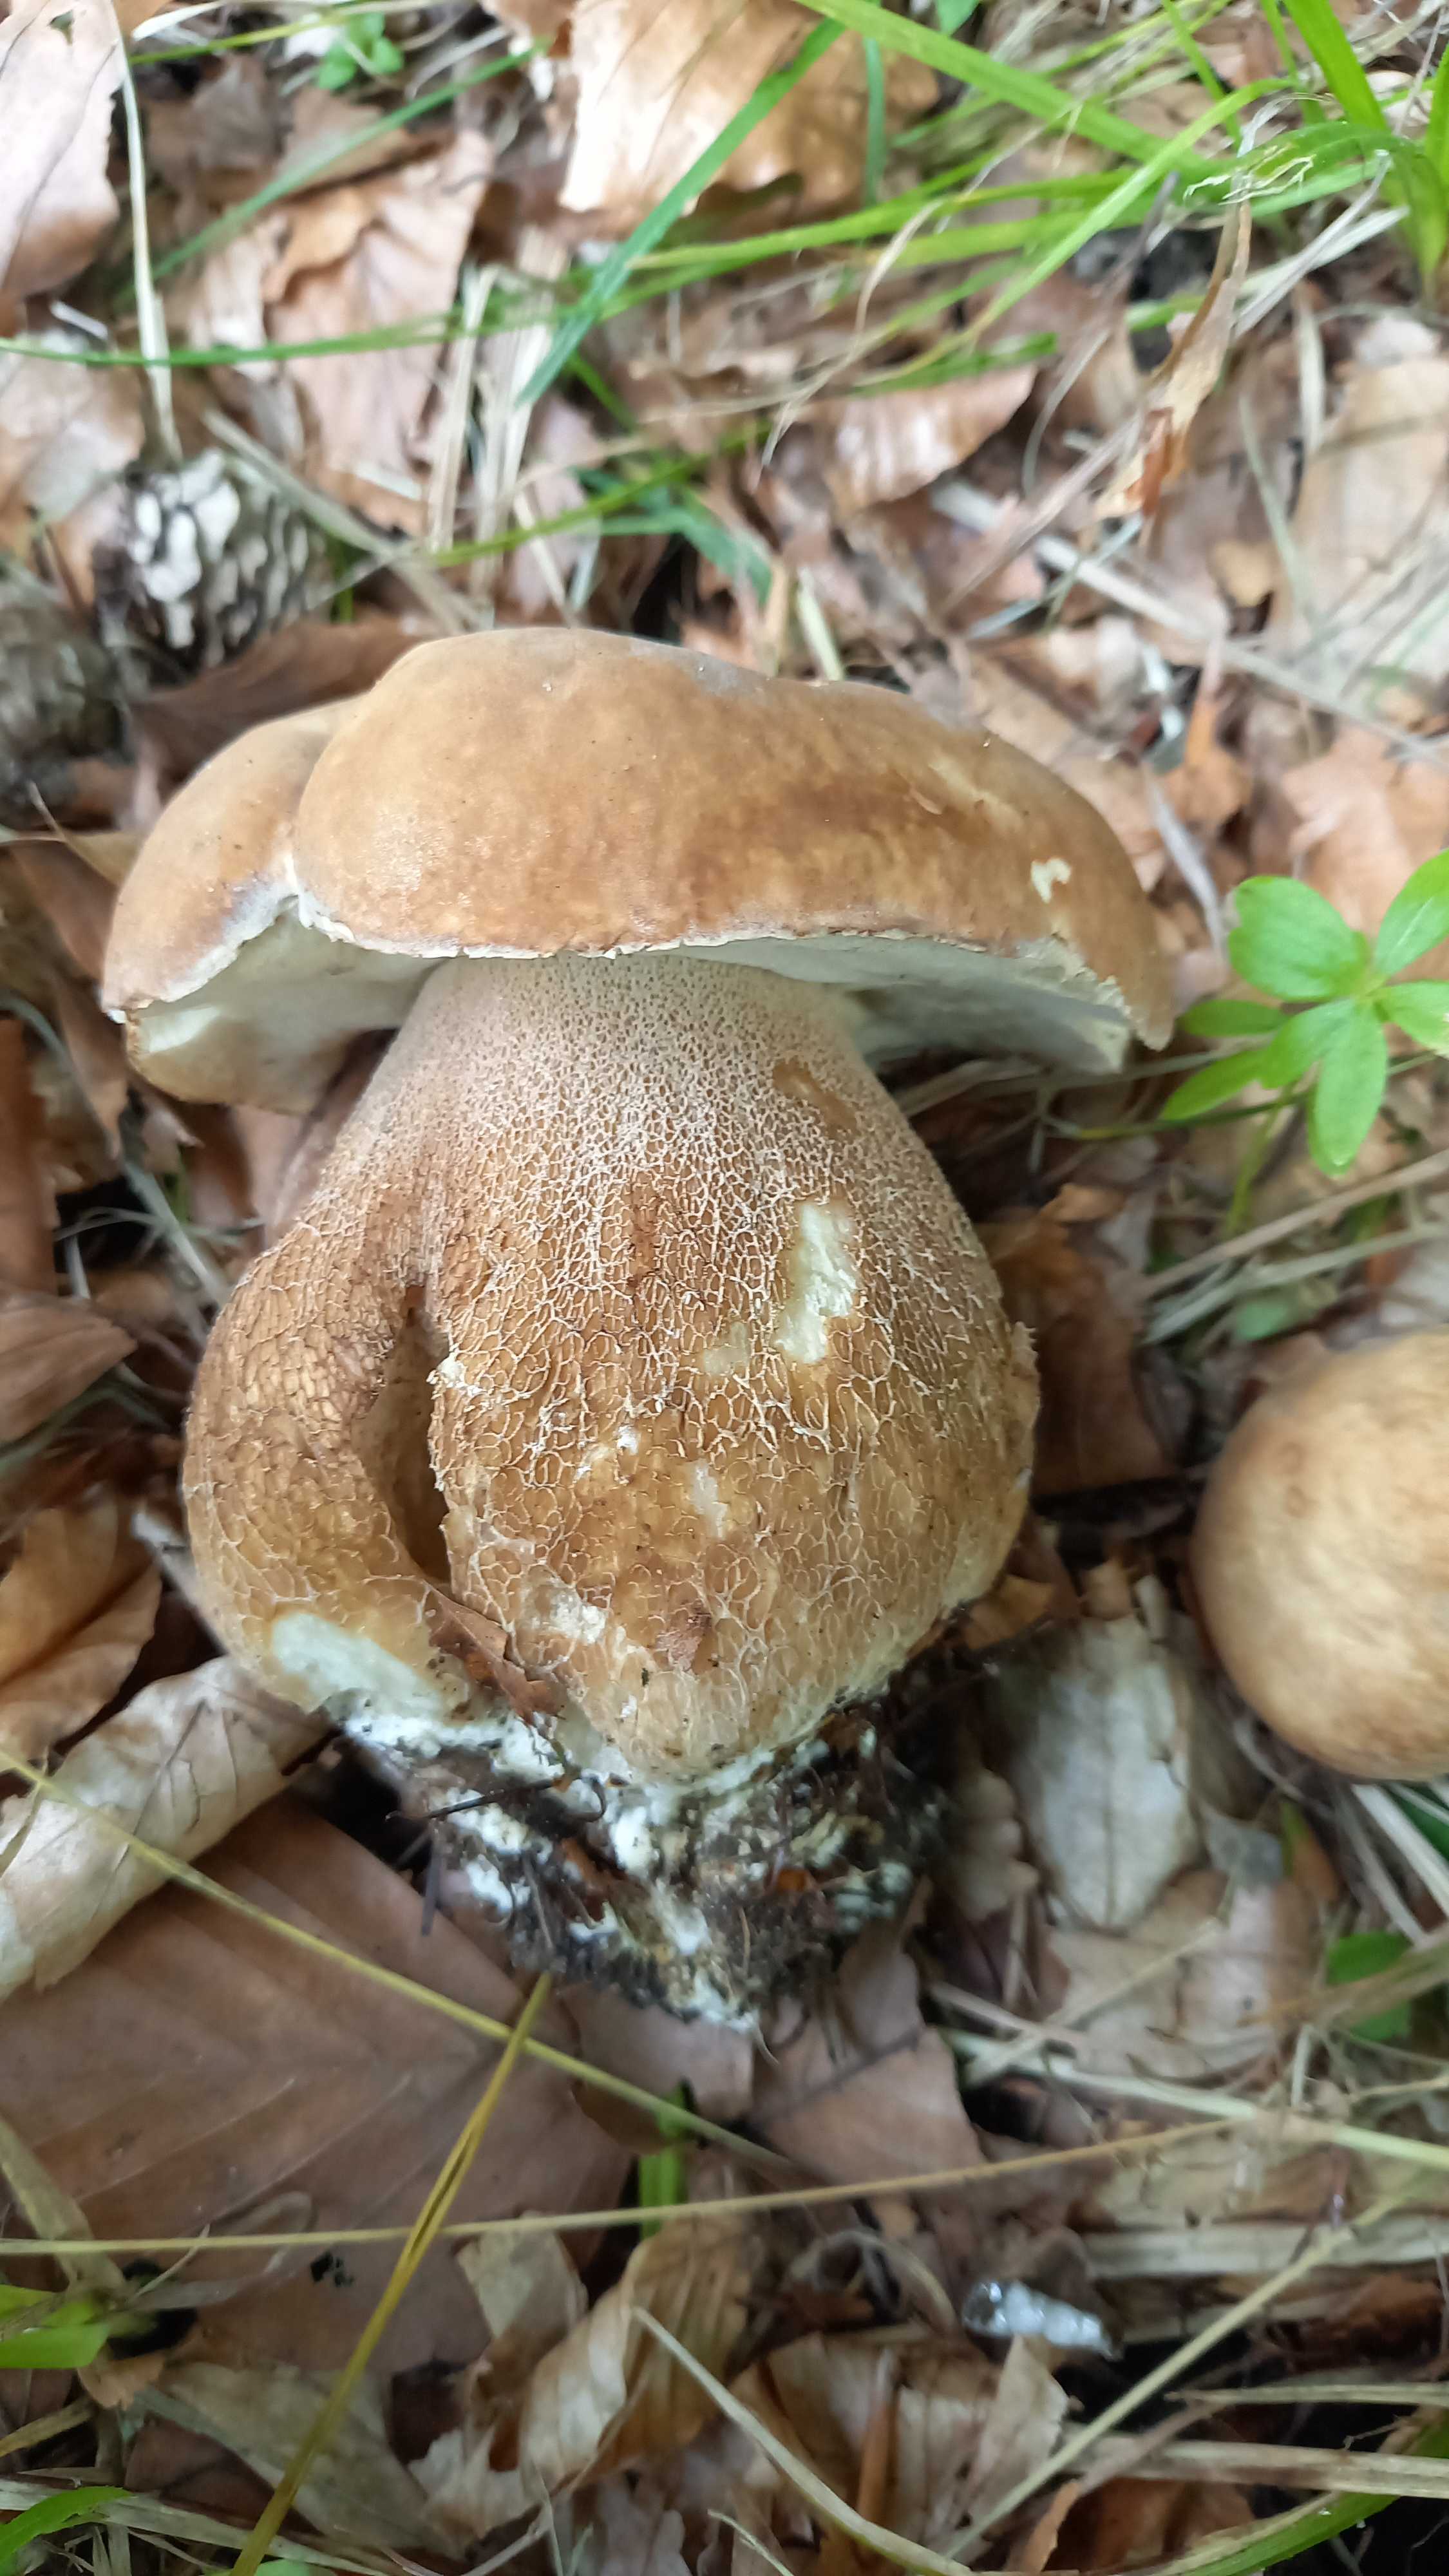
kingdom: Fungi
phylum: Basidiomycota
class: Agaricomycetes
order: Boletales
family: Boletaceae
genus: Boletus
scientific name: Boletus reticulatus
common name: sommer-rørhat
